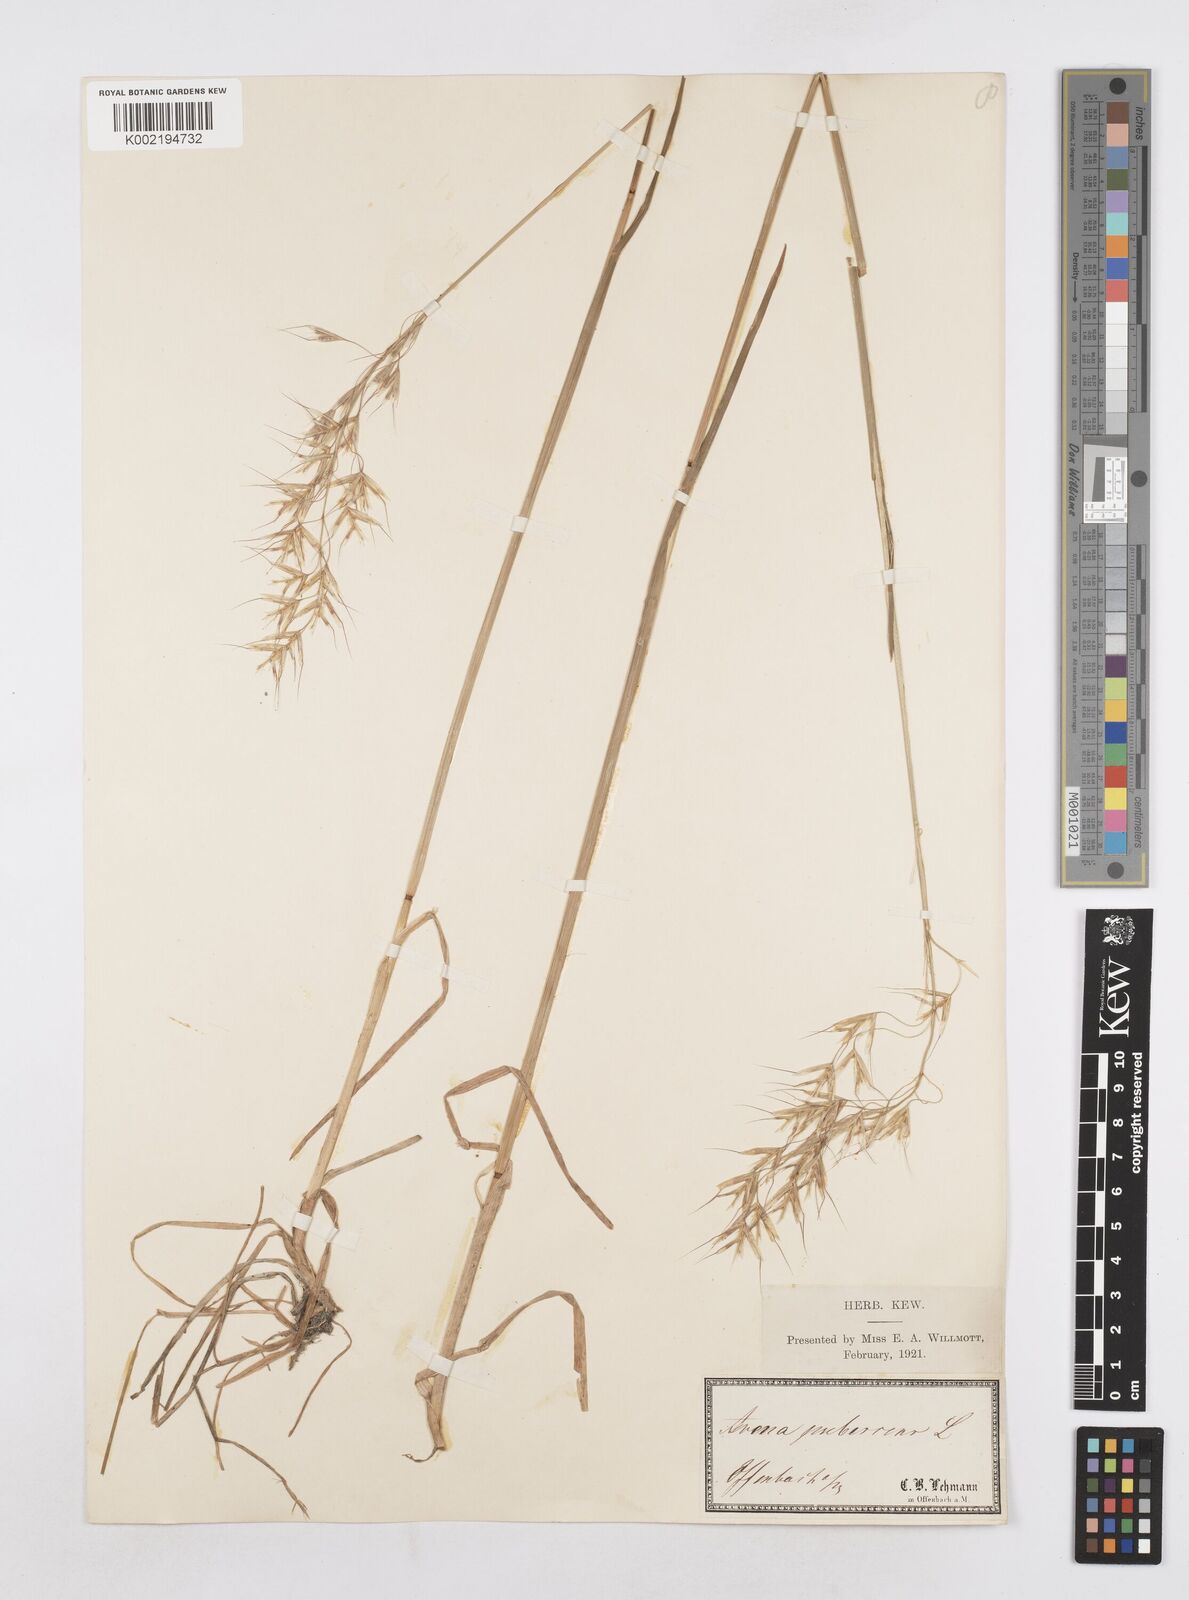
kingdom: Plantae
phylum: Tracheophyta
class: Liliopsida
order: Poales
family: Poaceae
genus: Avenula
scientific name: Avenula pubescens
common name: Downy alpine oatgrass
